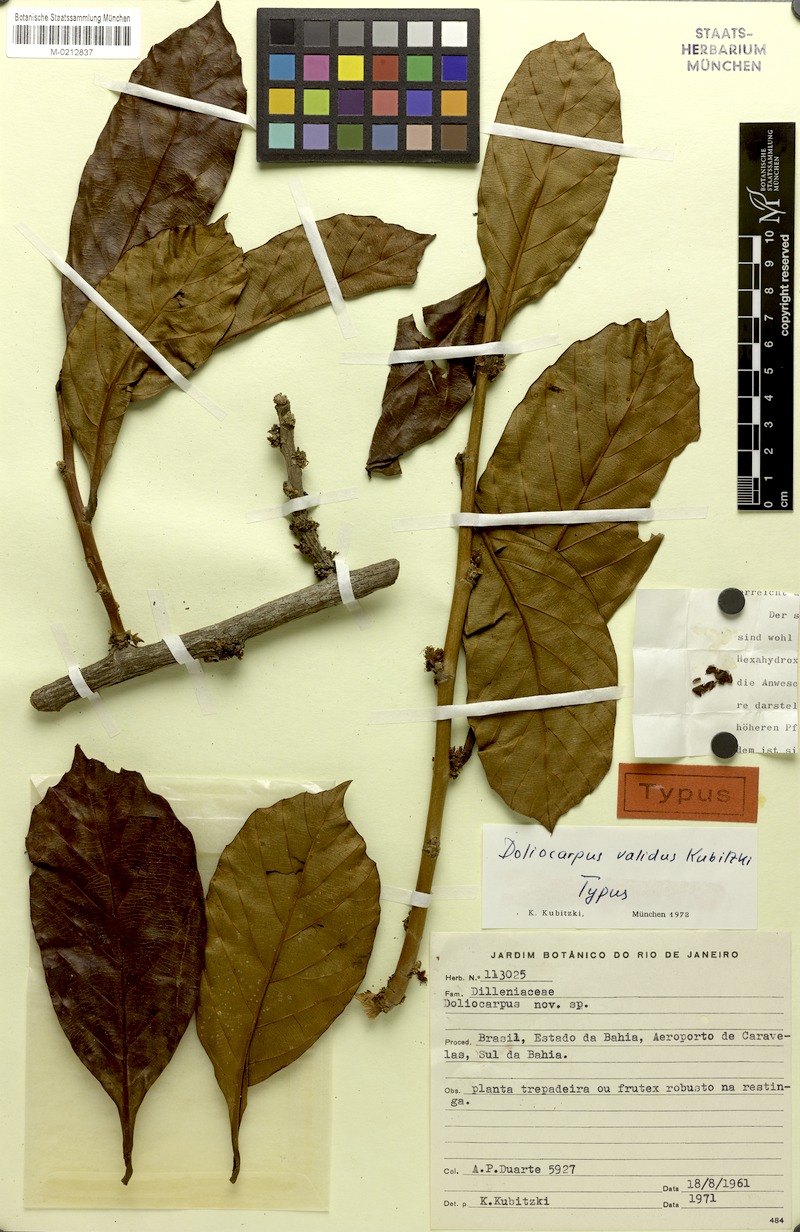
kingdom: Plantae
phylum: Tracheophyta
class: Magnoliopsida
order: Dilleniales
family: Dilleniaceae
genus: Doliocarpus
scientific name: Doliocarpus validus
